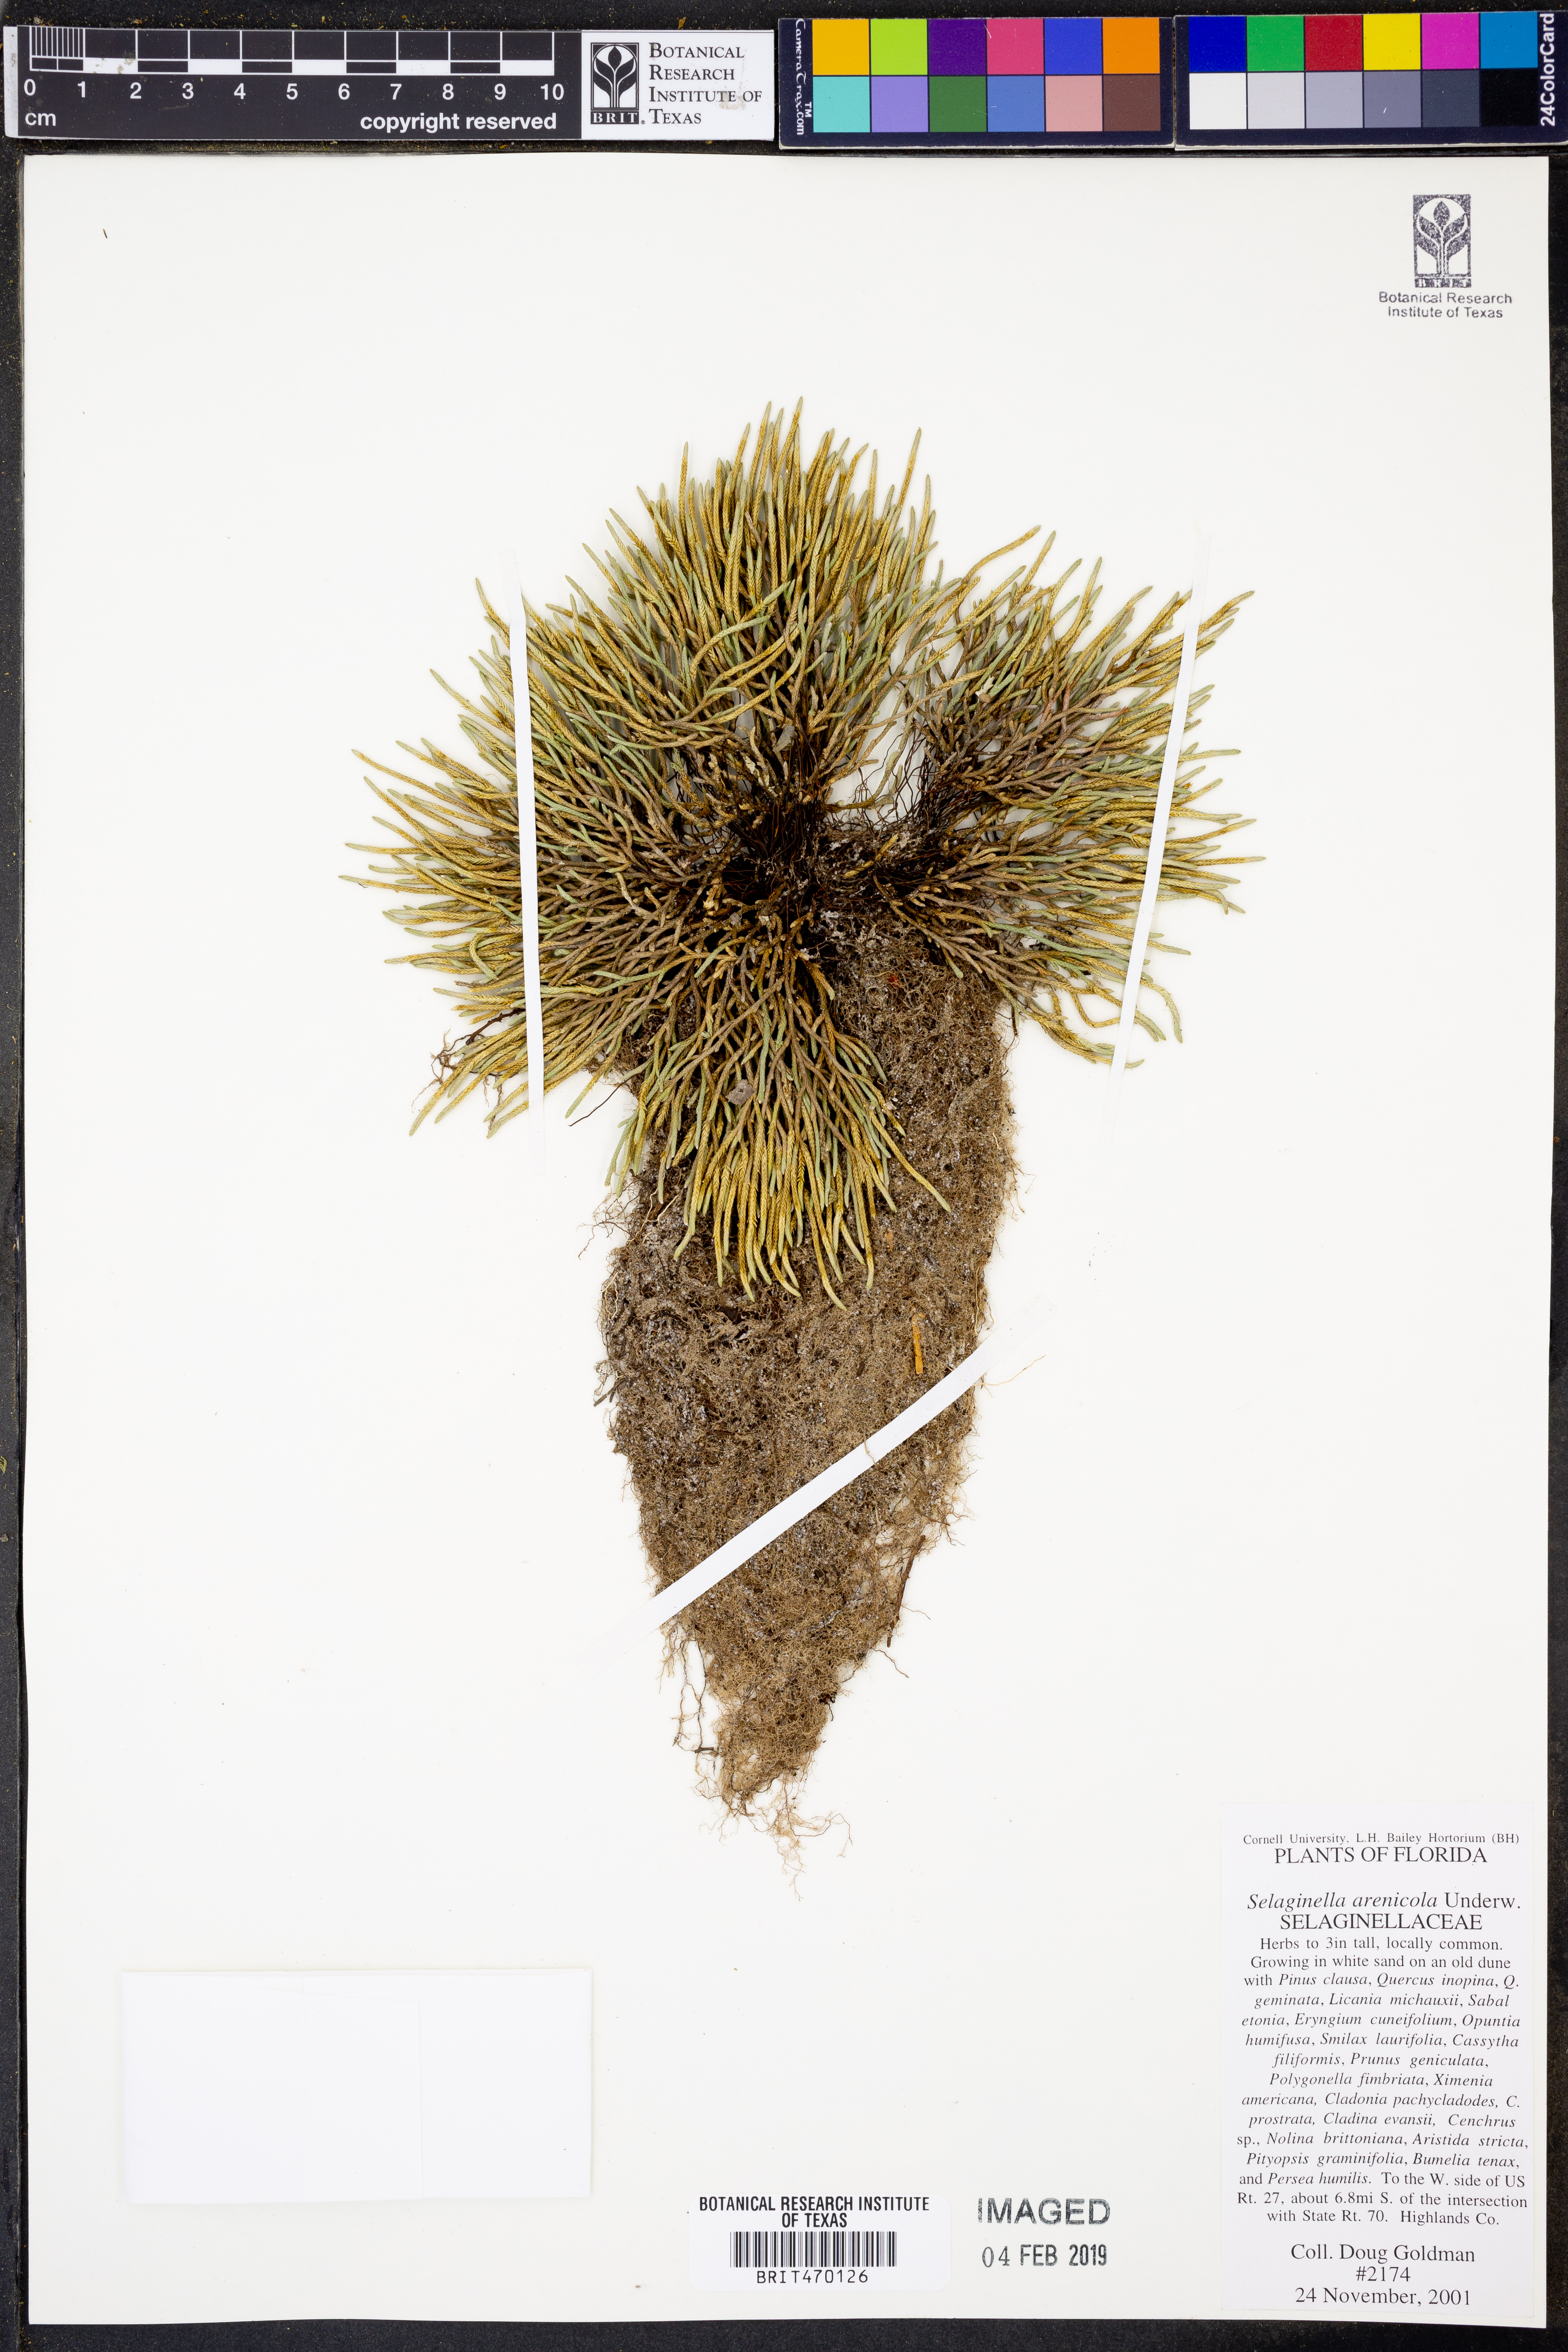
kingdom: Plantae
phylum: Tracheophyta
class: Lycopodiopsida
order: Selaginellales
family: Selaginellaceae
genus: Selaginella
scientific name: Selaginella arenicola
